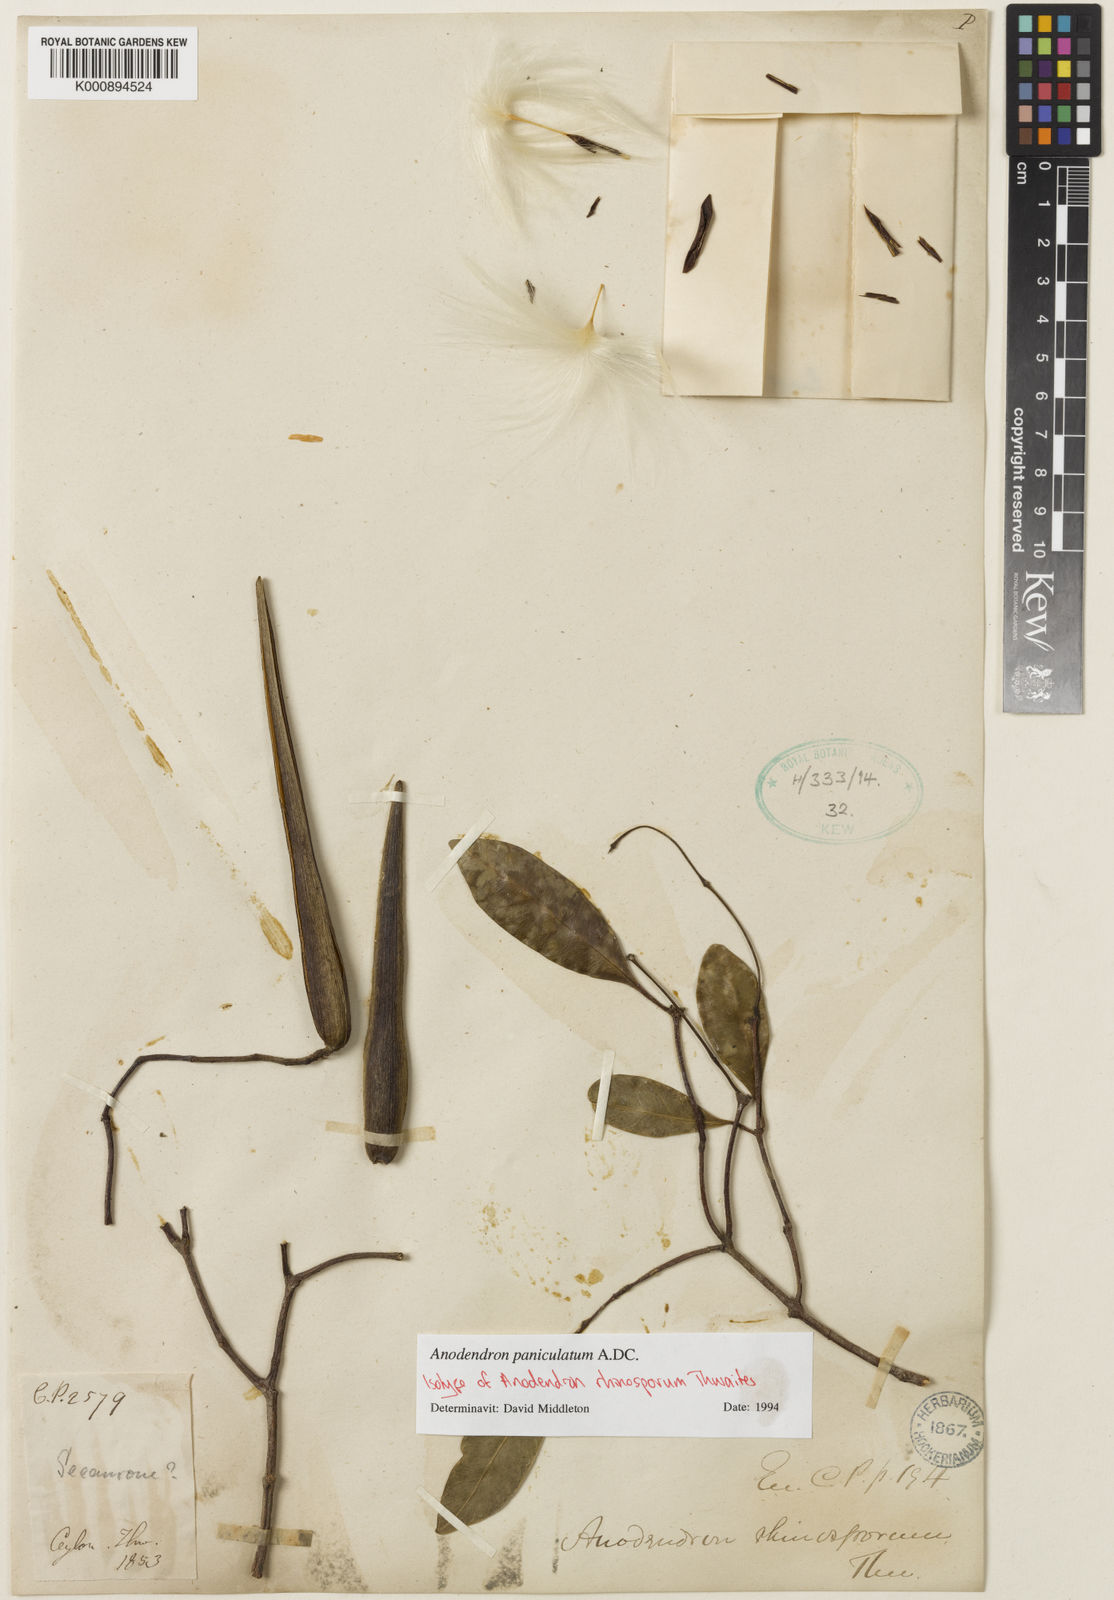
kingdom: Plantae
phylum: Tracheophyta
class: Magnoliopsida
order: Gentianales
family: Apocynaceae
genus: Anodendron
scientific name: Anodendron parviflorum
